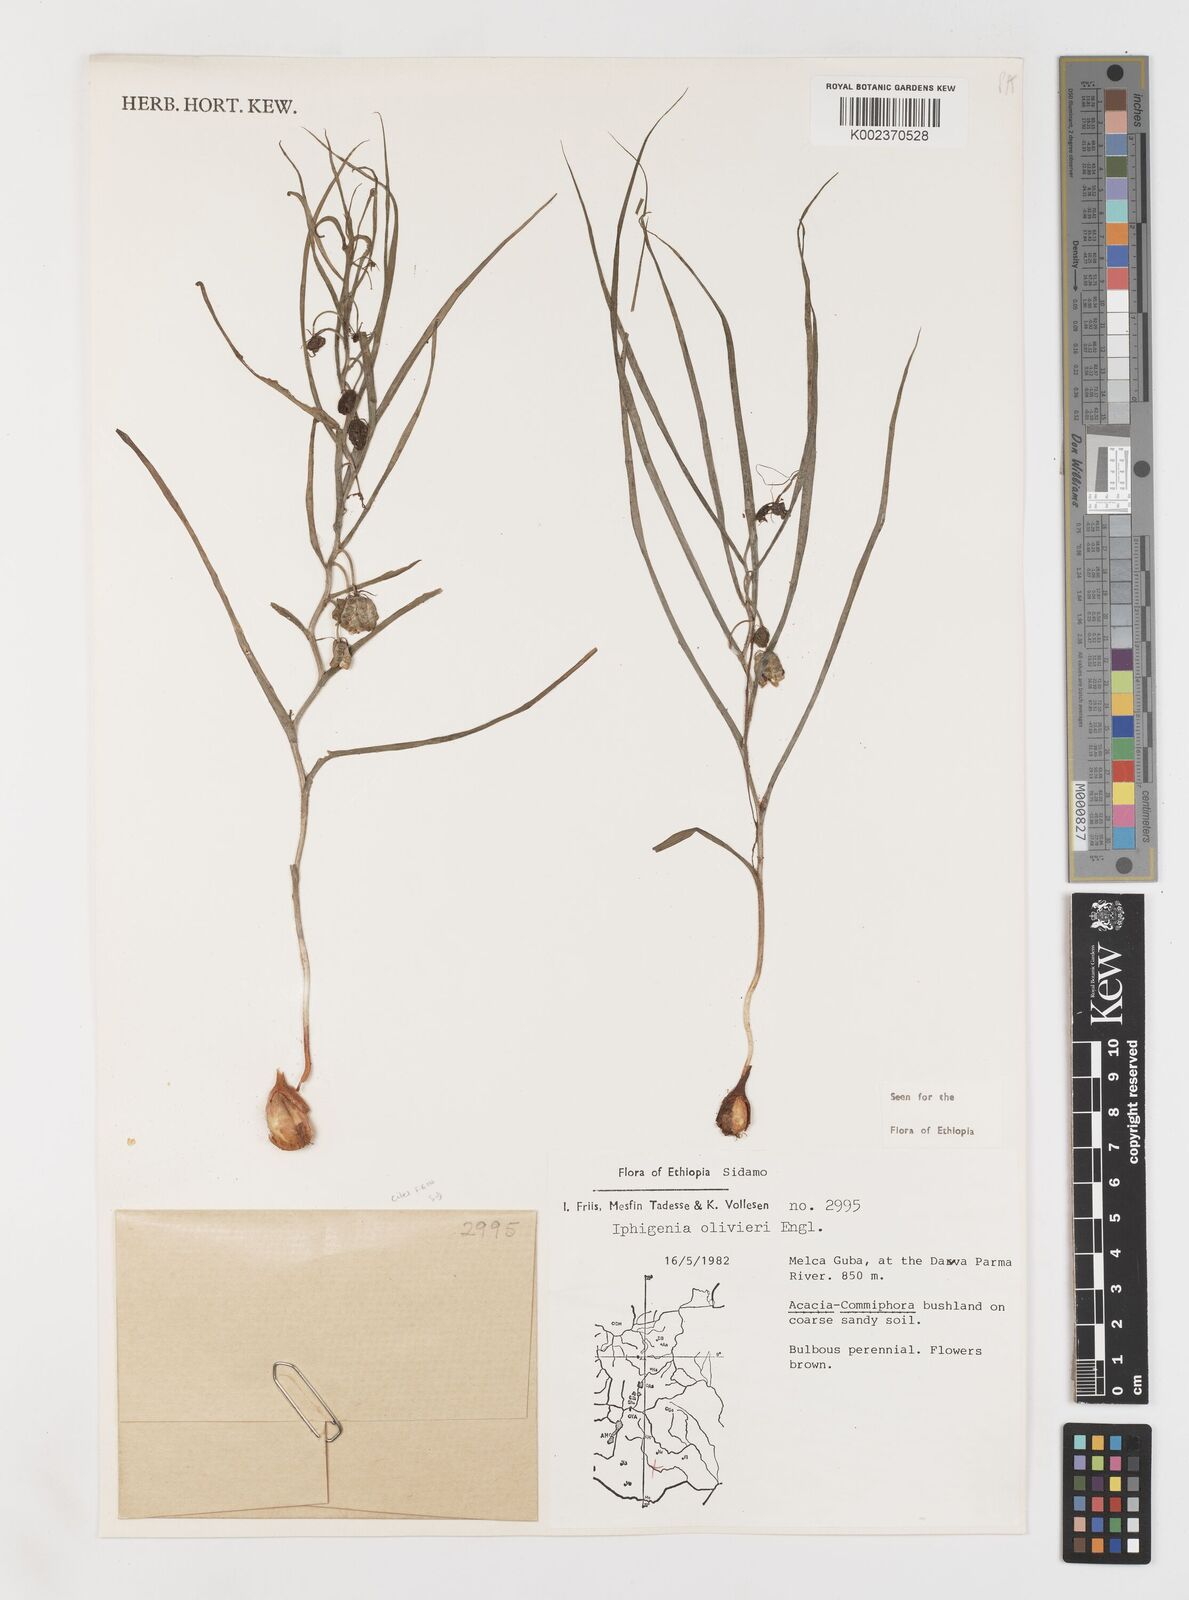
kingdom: Plantae
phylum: Tracheophyta
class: Liliopsida
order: Liliales
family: Colchicaceae
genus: Iphigenia
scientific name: Iphigenia oliveri
